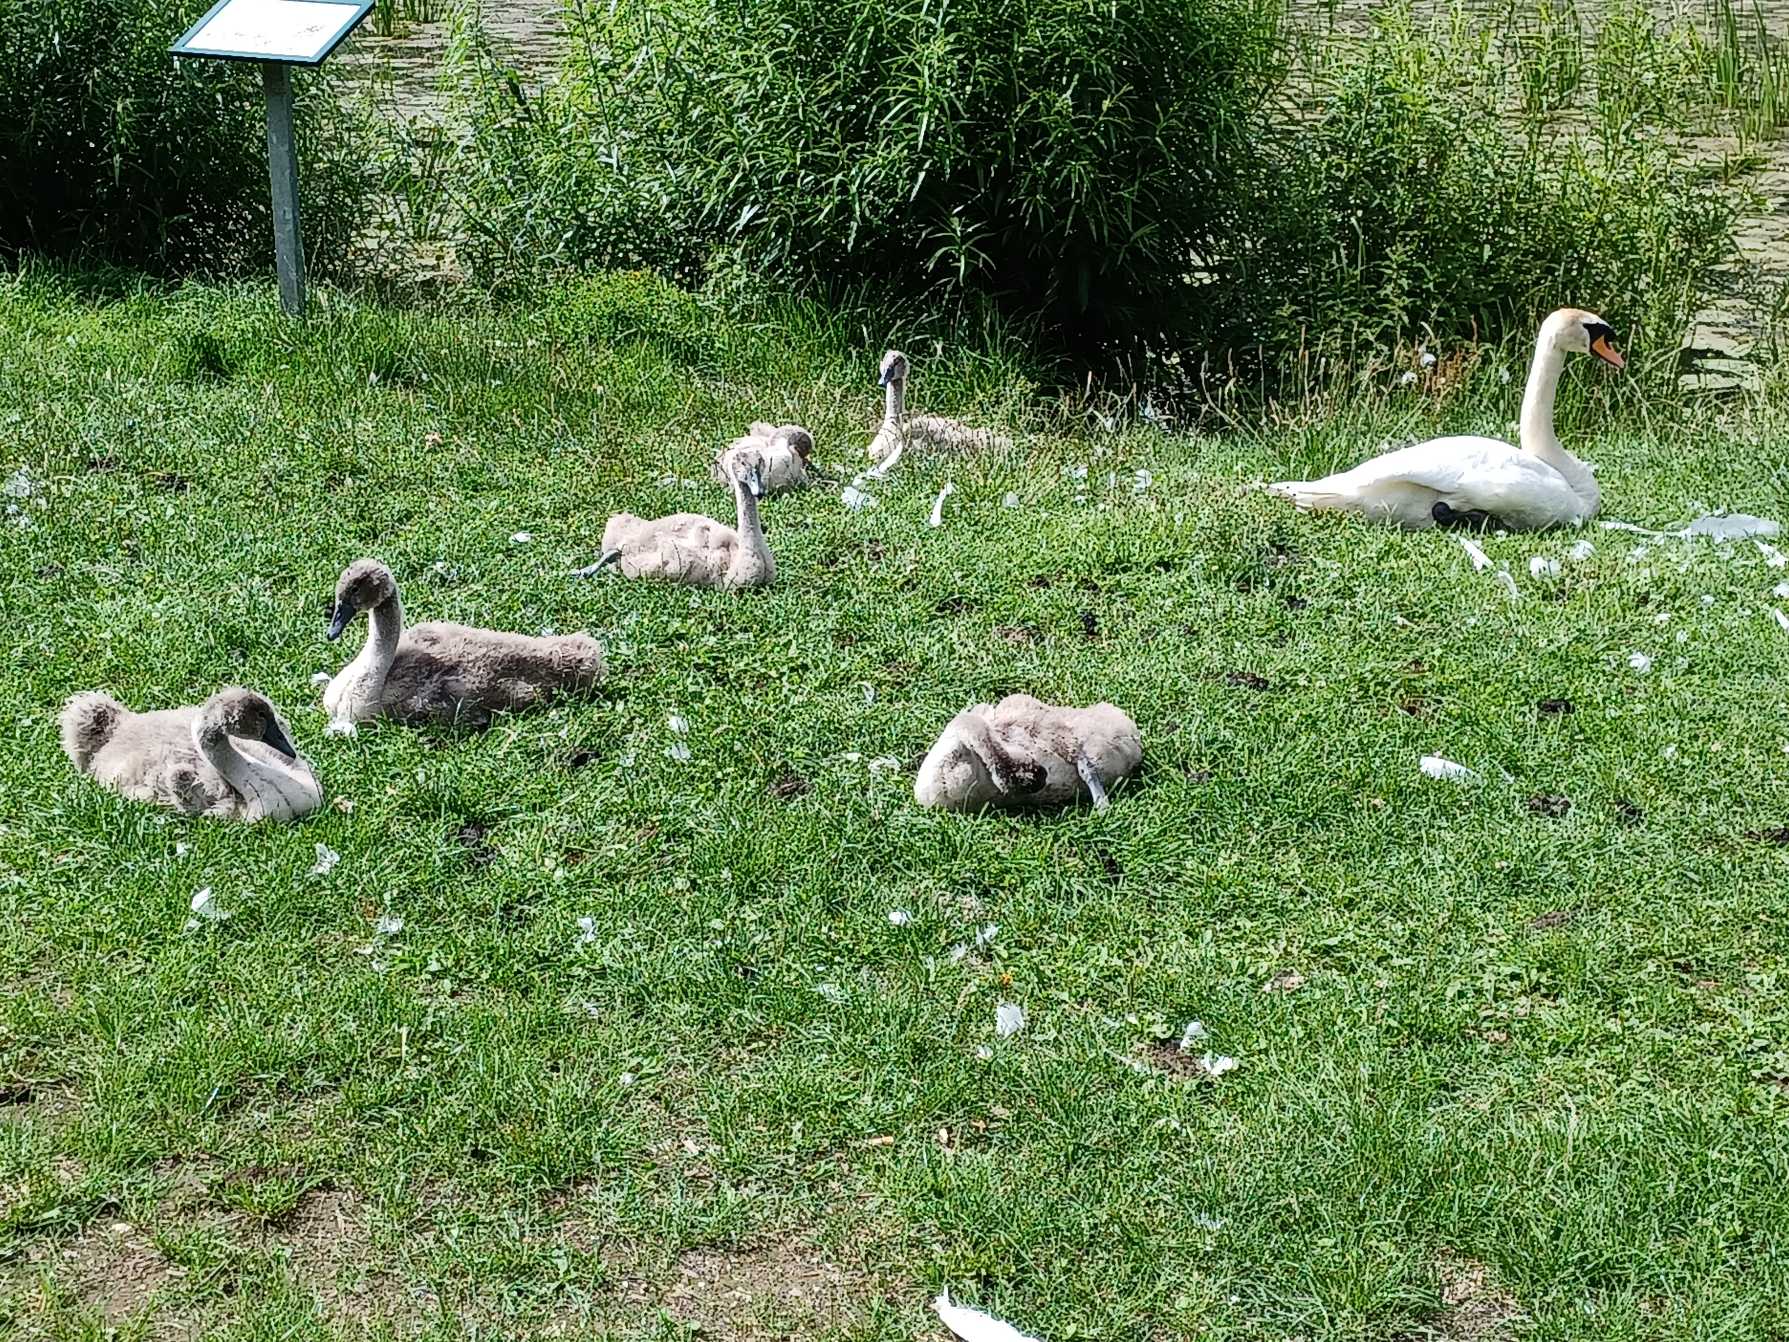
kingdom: Animalia
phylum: Chordata
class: Aves
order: Anseriformes
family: Anatidae
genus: Cygnus
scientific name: Cygnus olor
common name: Knopsvane
